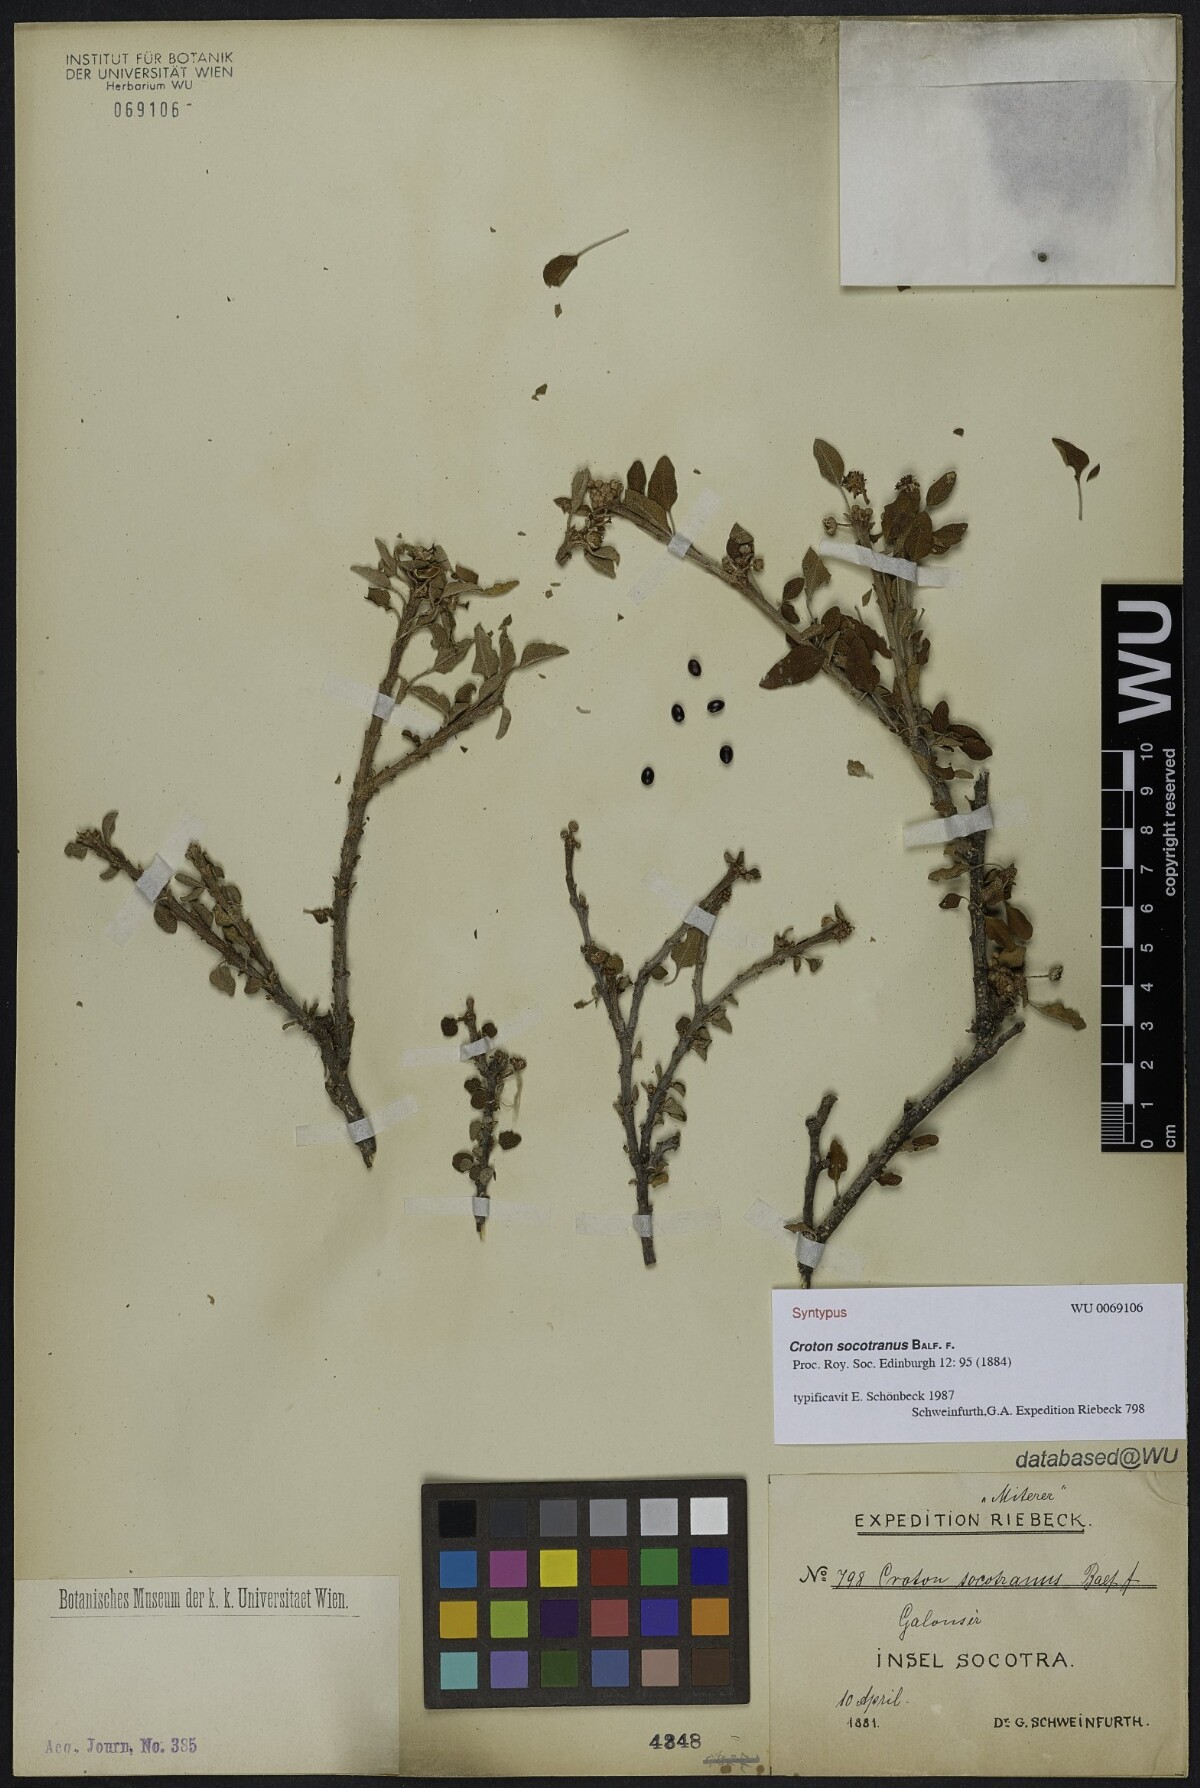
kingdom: Plantae
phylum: Tracheophyta
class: Magnoliopsida
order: Malpighiales
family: Euphorbiaceae
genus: Croton
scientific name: Croton socotranus
